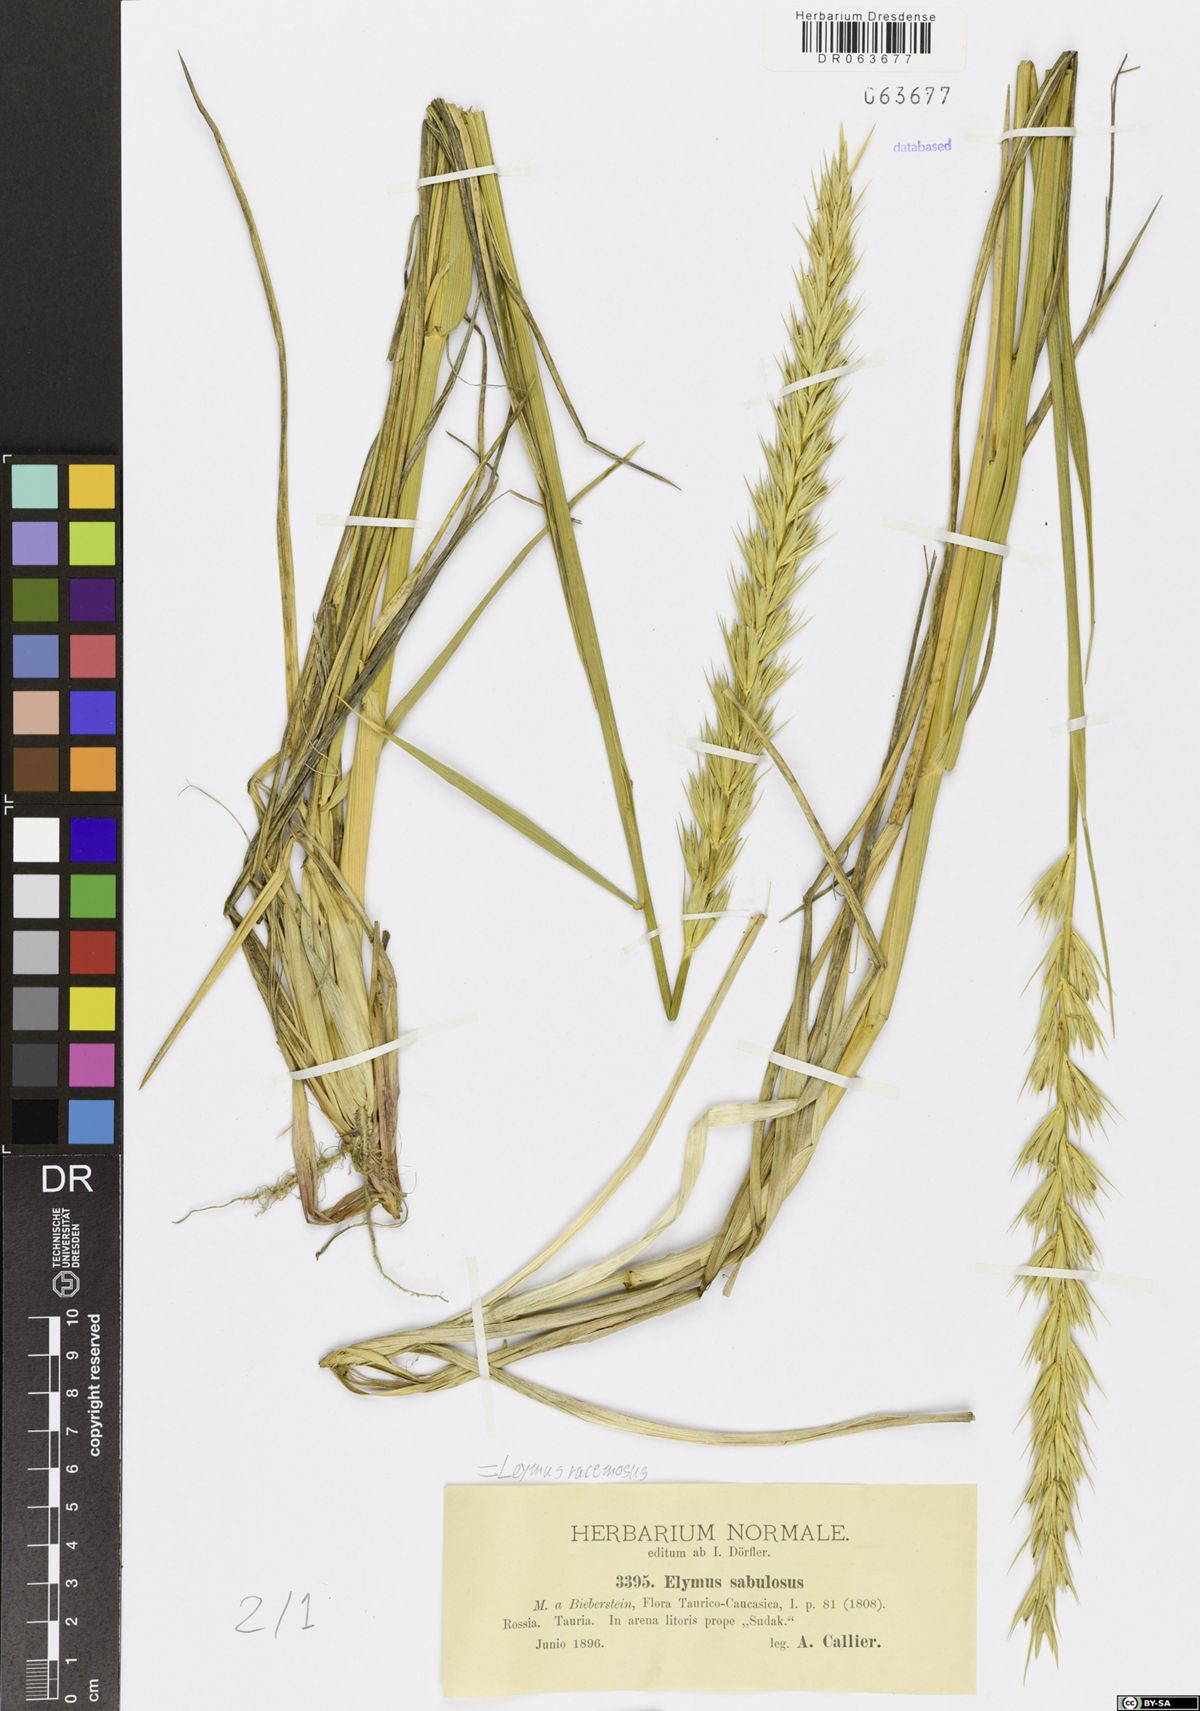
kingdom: Plantae
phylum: Tracheophyta
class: Liliopsida
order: Poales
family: Poaceae
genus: Leymus
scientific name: Leymus racemosus
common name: Mammoth wildrye
